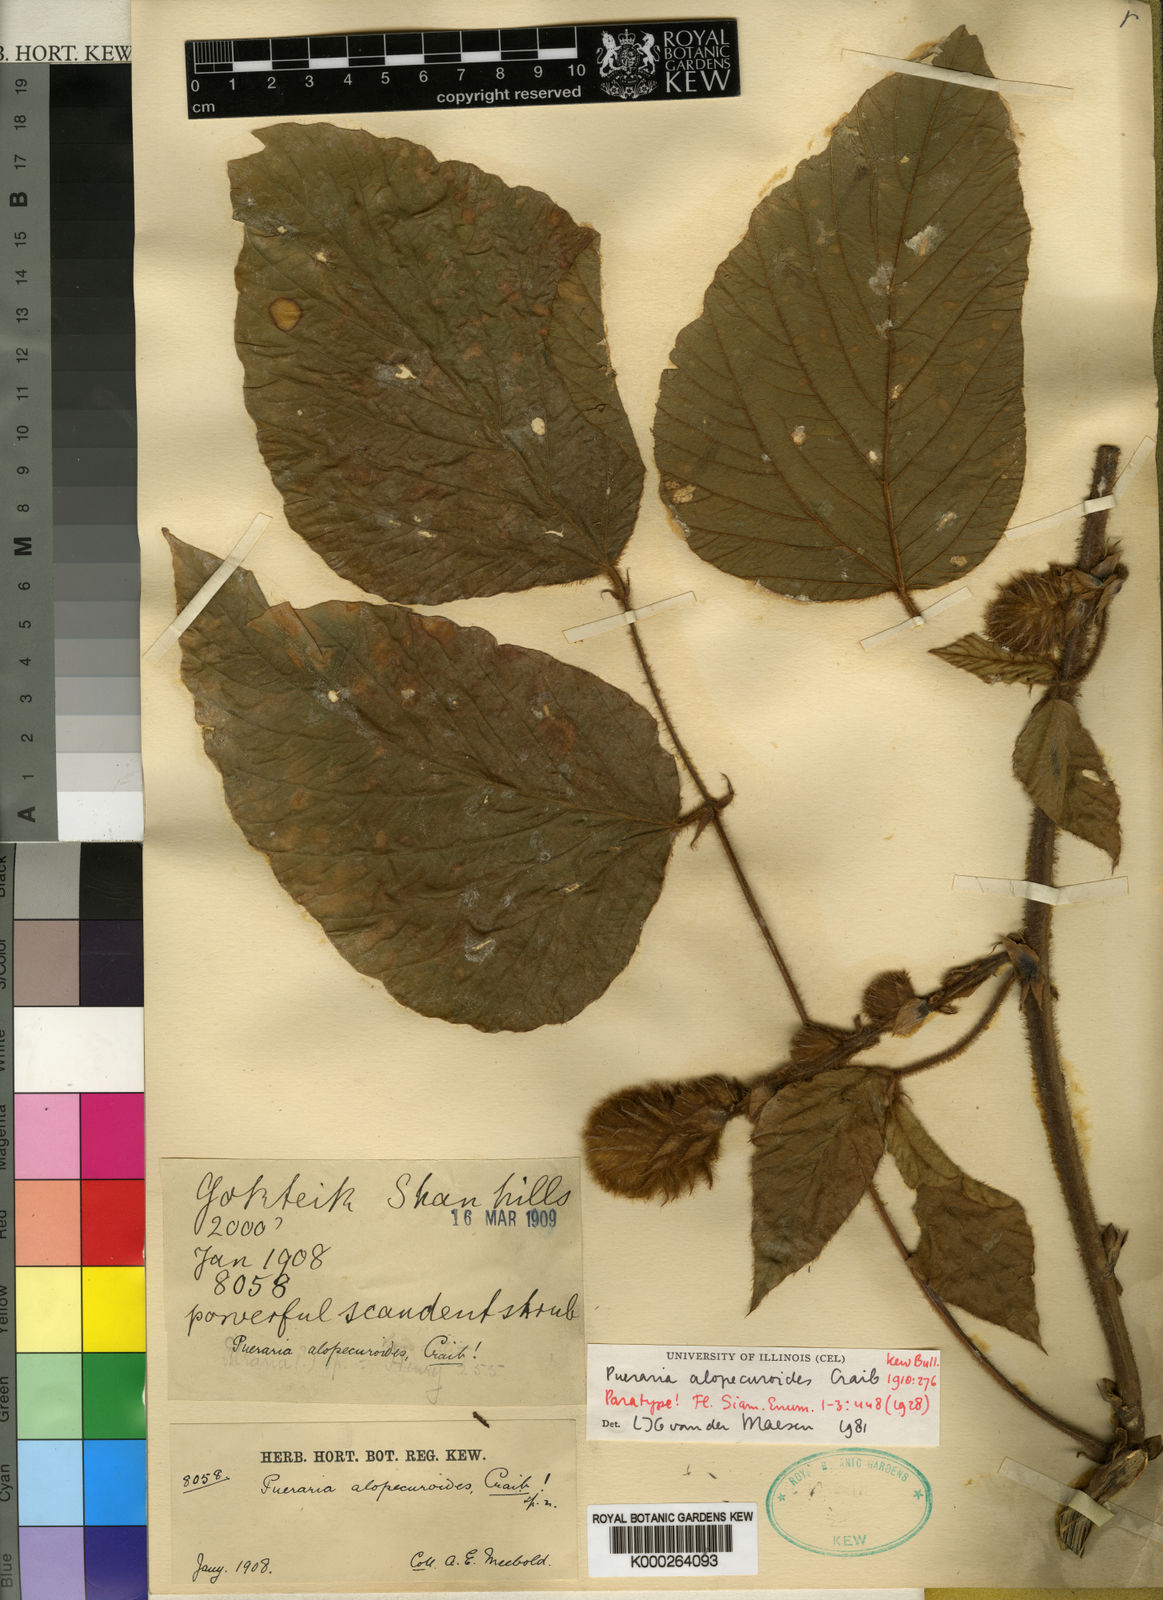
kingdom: Plantae
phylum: Tracheophyta
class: Magnoliopsida
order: Fabales
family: Fabaceae
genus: Pueraria
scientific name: Pueraria alopecuroides
